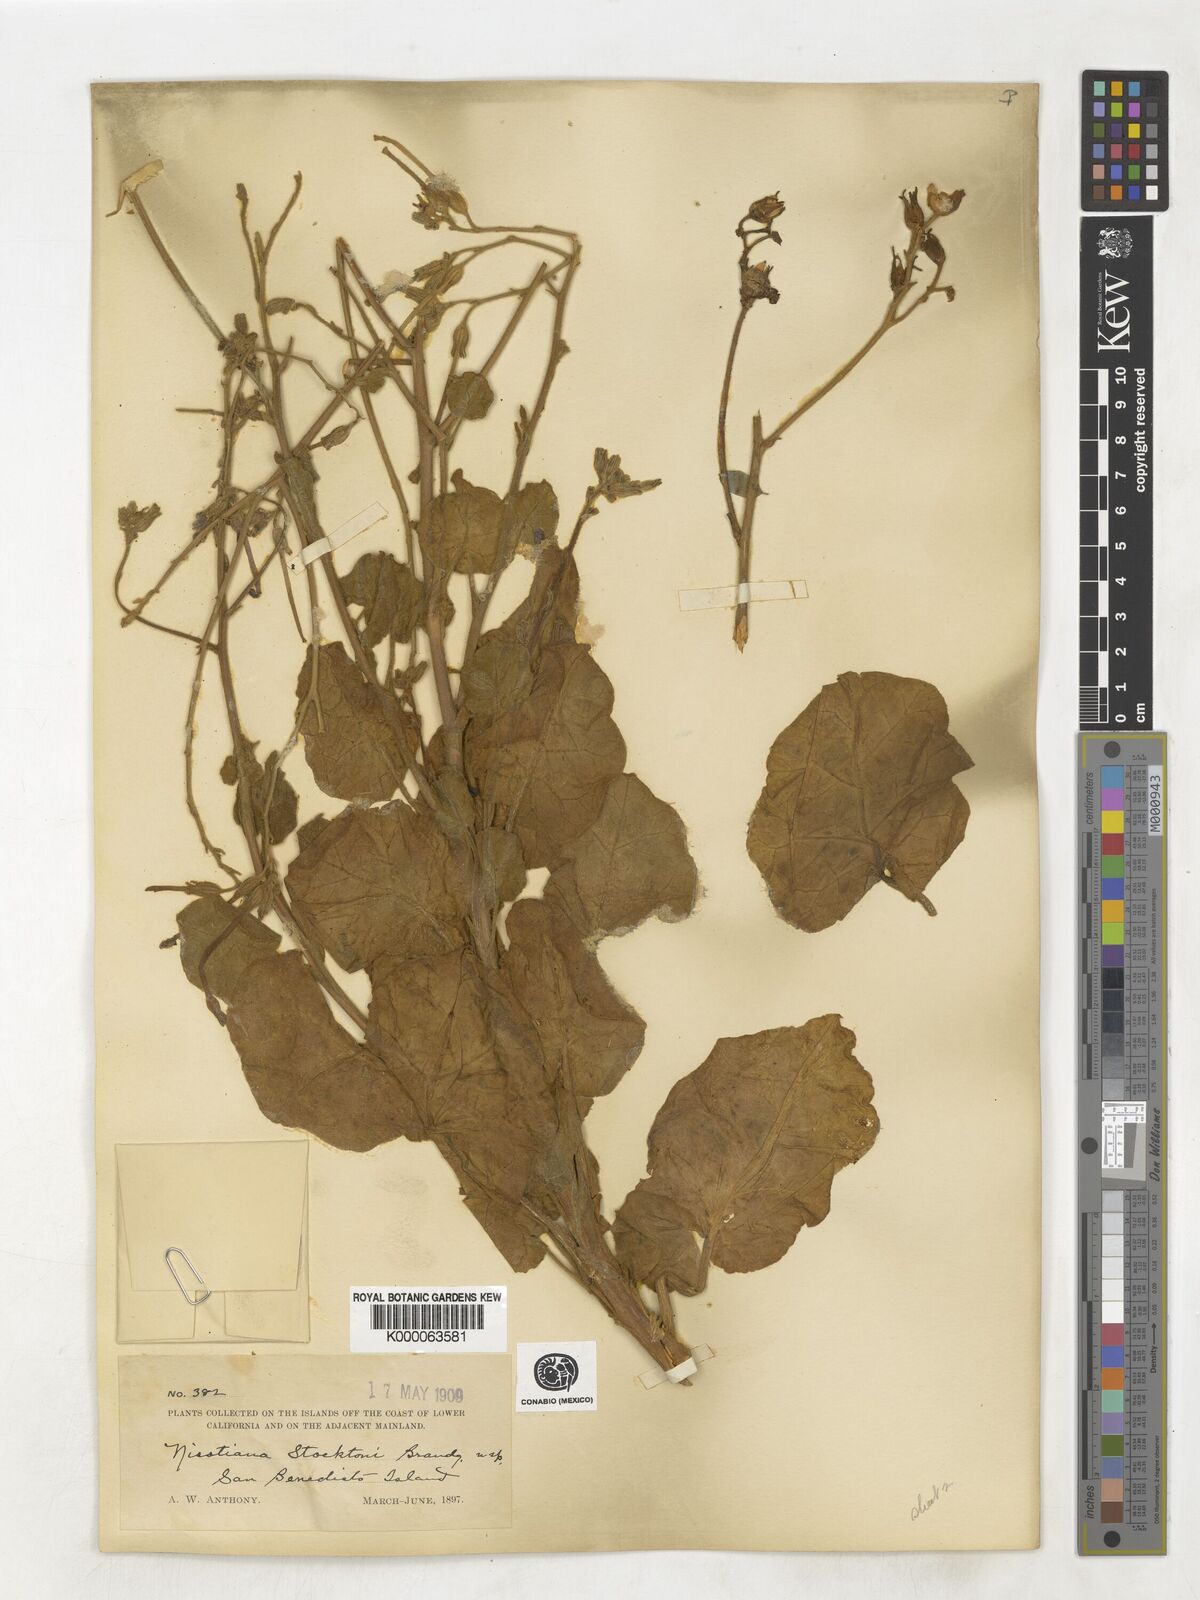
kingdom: Plantae
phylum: Tracheophyta
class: Magnoliopsida
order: Solanales
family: Solanaceae
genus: Nicotiana
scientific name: Nicotiana stocktonii
